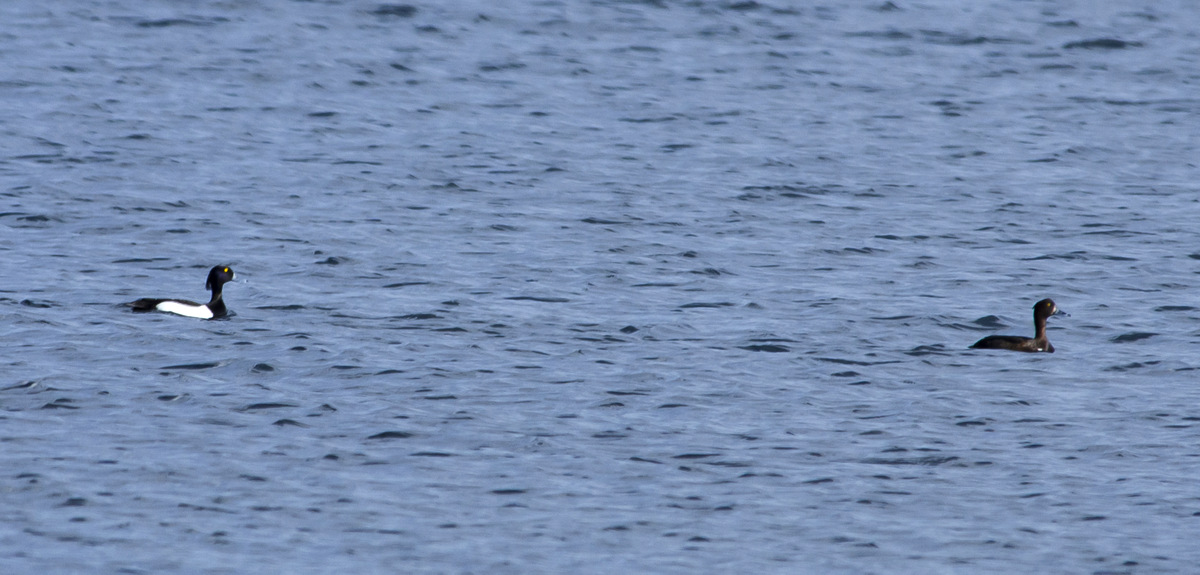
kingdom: Animalia
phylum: Chordata
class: Aves
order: Anseriformes
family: Anatidae
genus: Aythya
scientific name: Aythya fuligula
